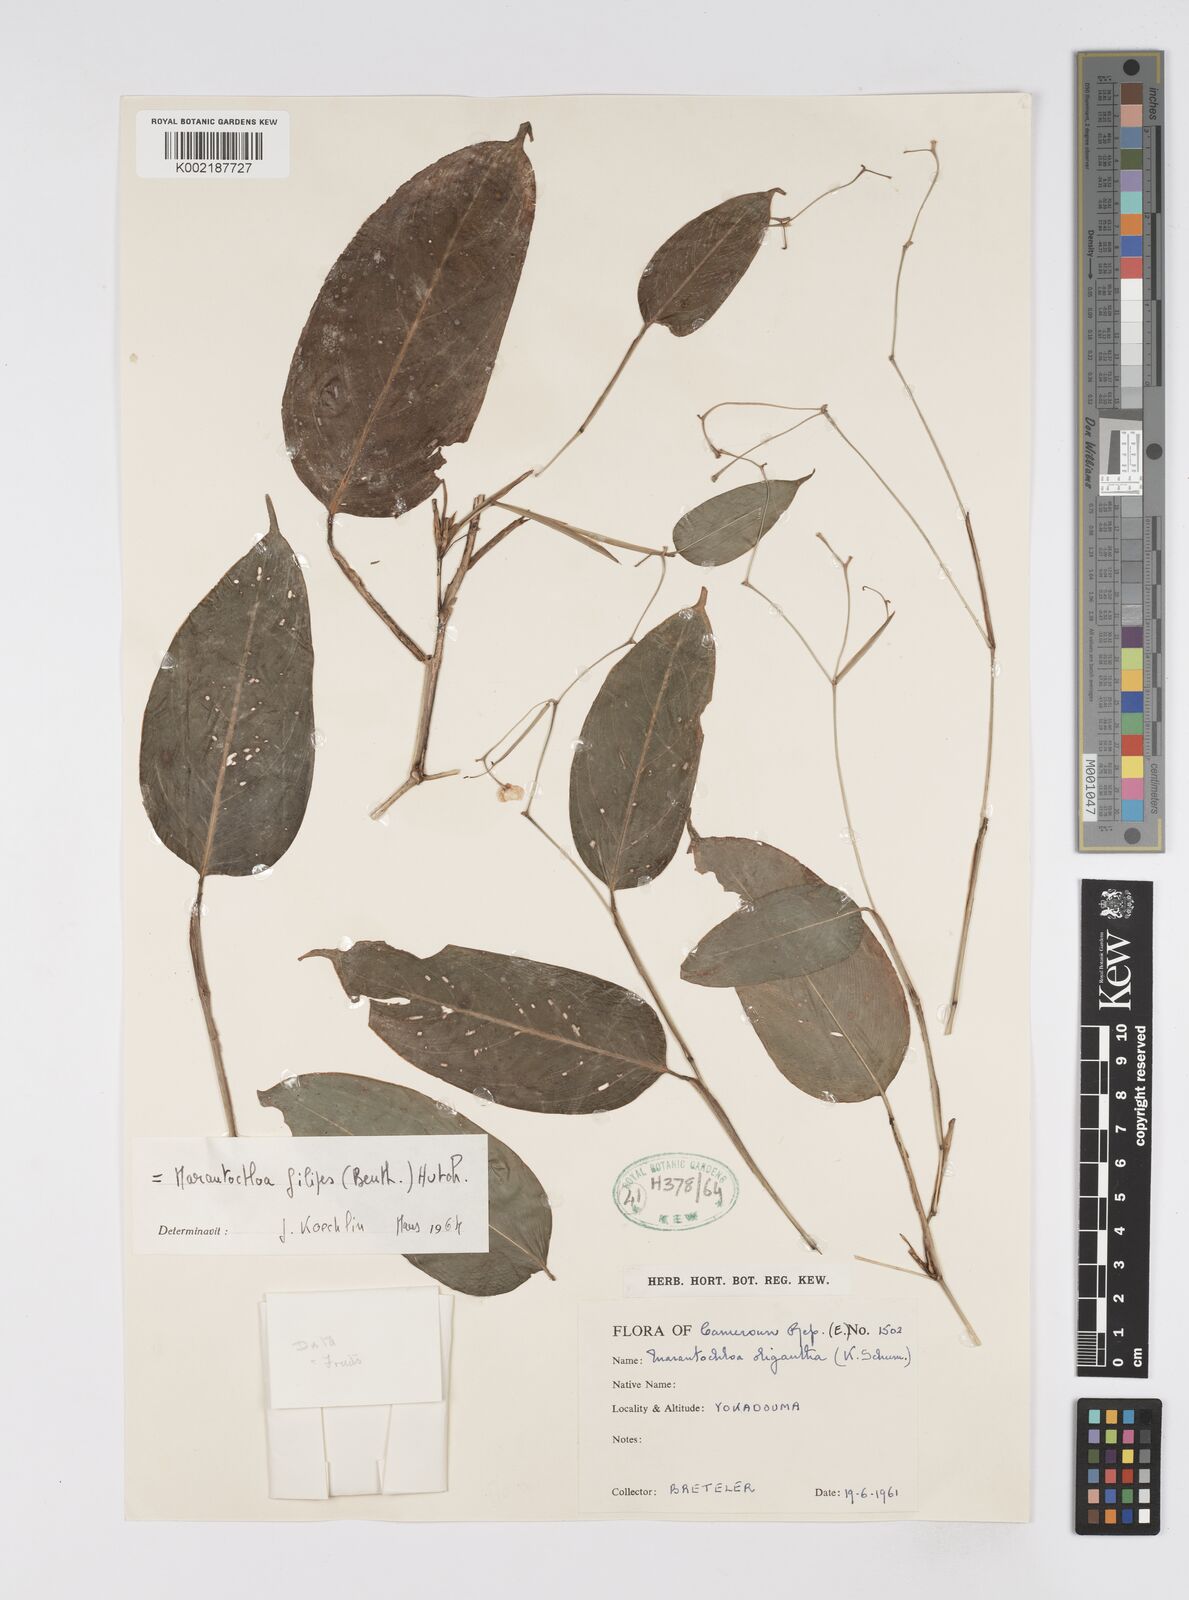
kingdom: Plantae
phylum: Tracheophyta
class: Liliopsida
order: Zingiberales
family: Marantaceae
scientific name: Marantaceae
